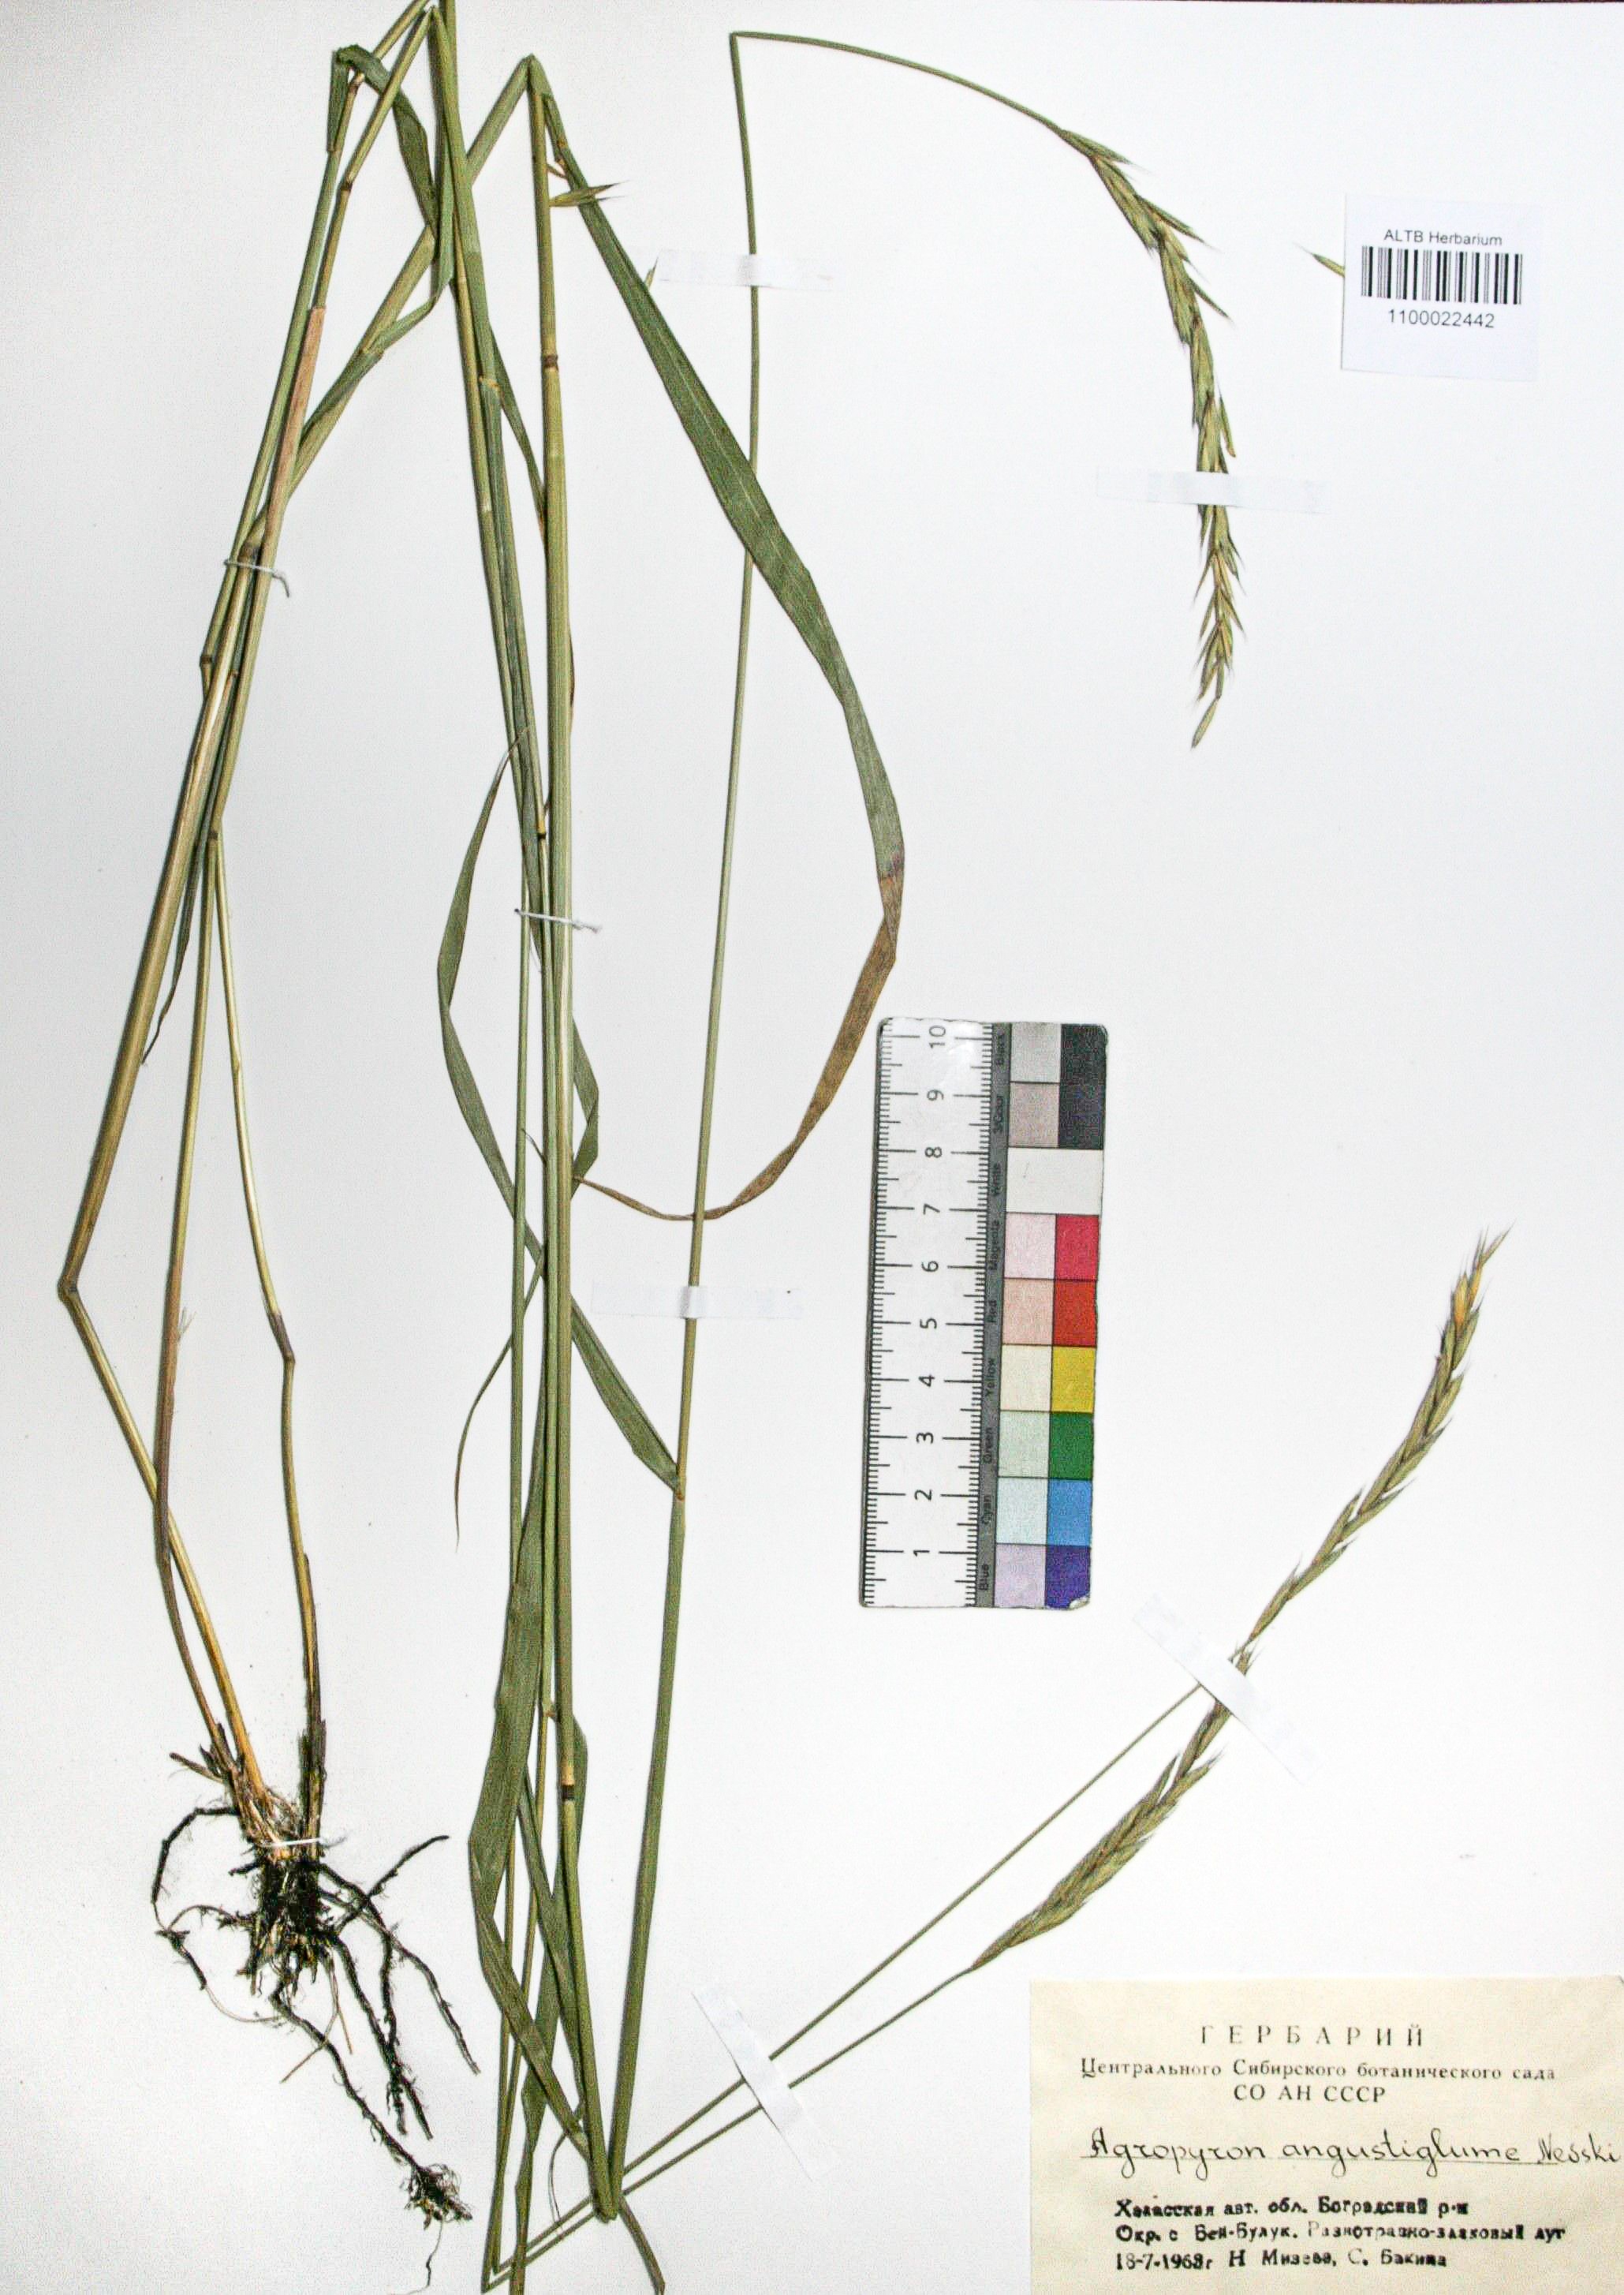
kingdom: Plantae
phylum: Tracheophyta
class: Liliopsida
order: Poales
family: Poaceae
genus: Elymus
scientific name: Elymus mutabilis
